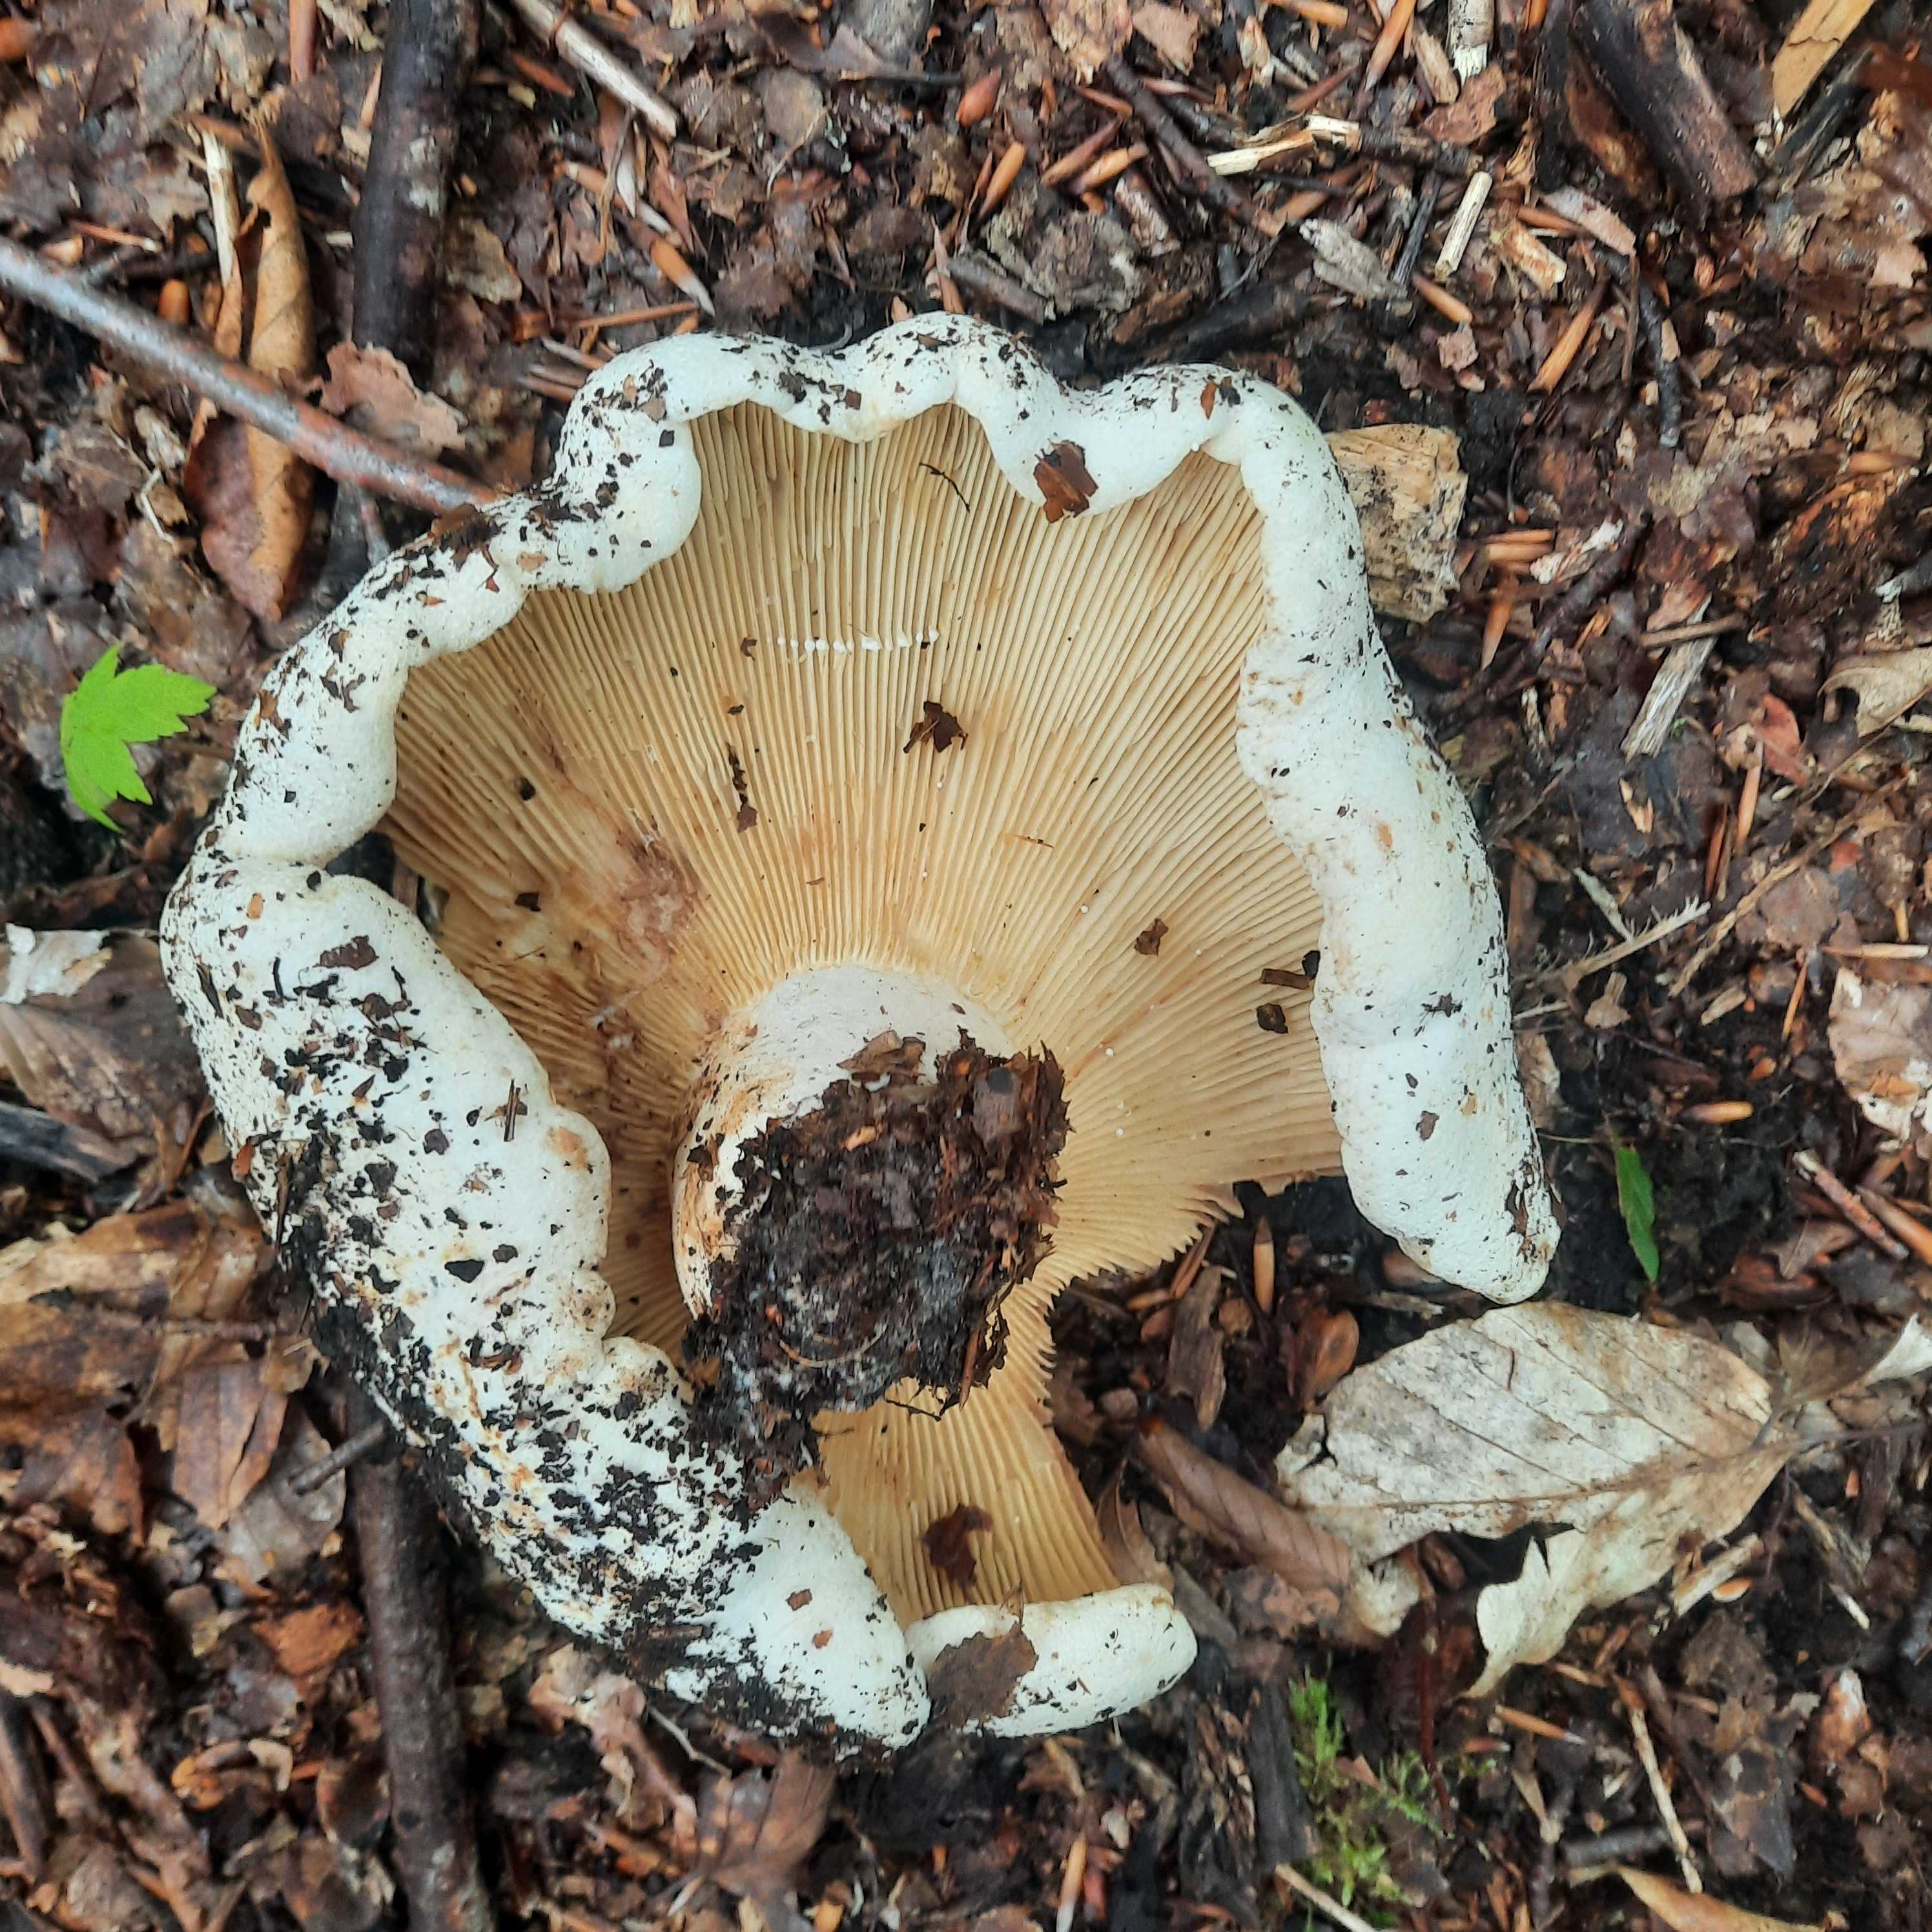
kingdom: Fungi
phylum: Basidiomycota
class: Agaricomycetes
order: Russulales
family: Russulaceae
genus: Lactifluus
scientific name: Lactifluus vellereus
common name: hvidfiltet mælkehat
